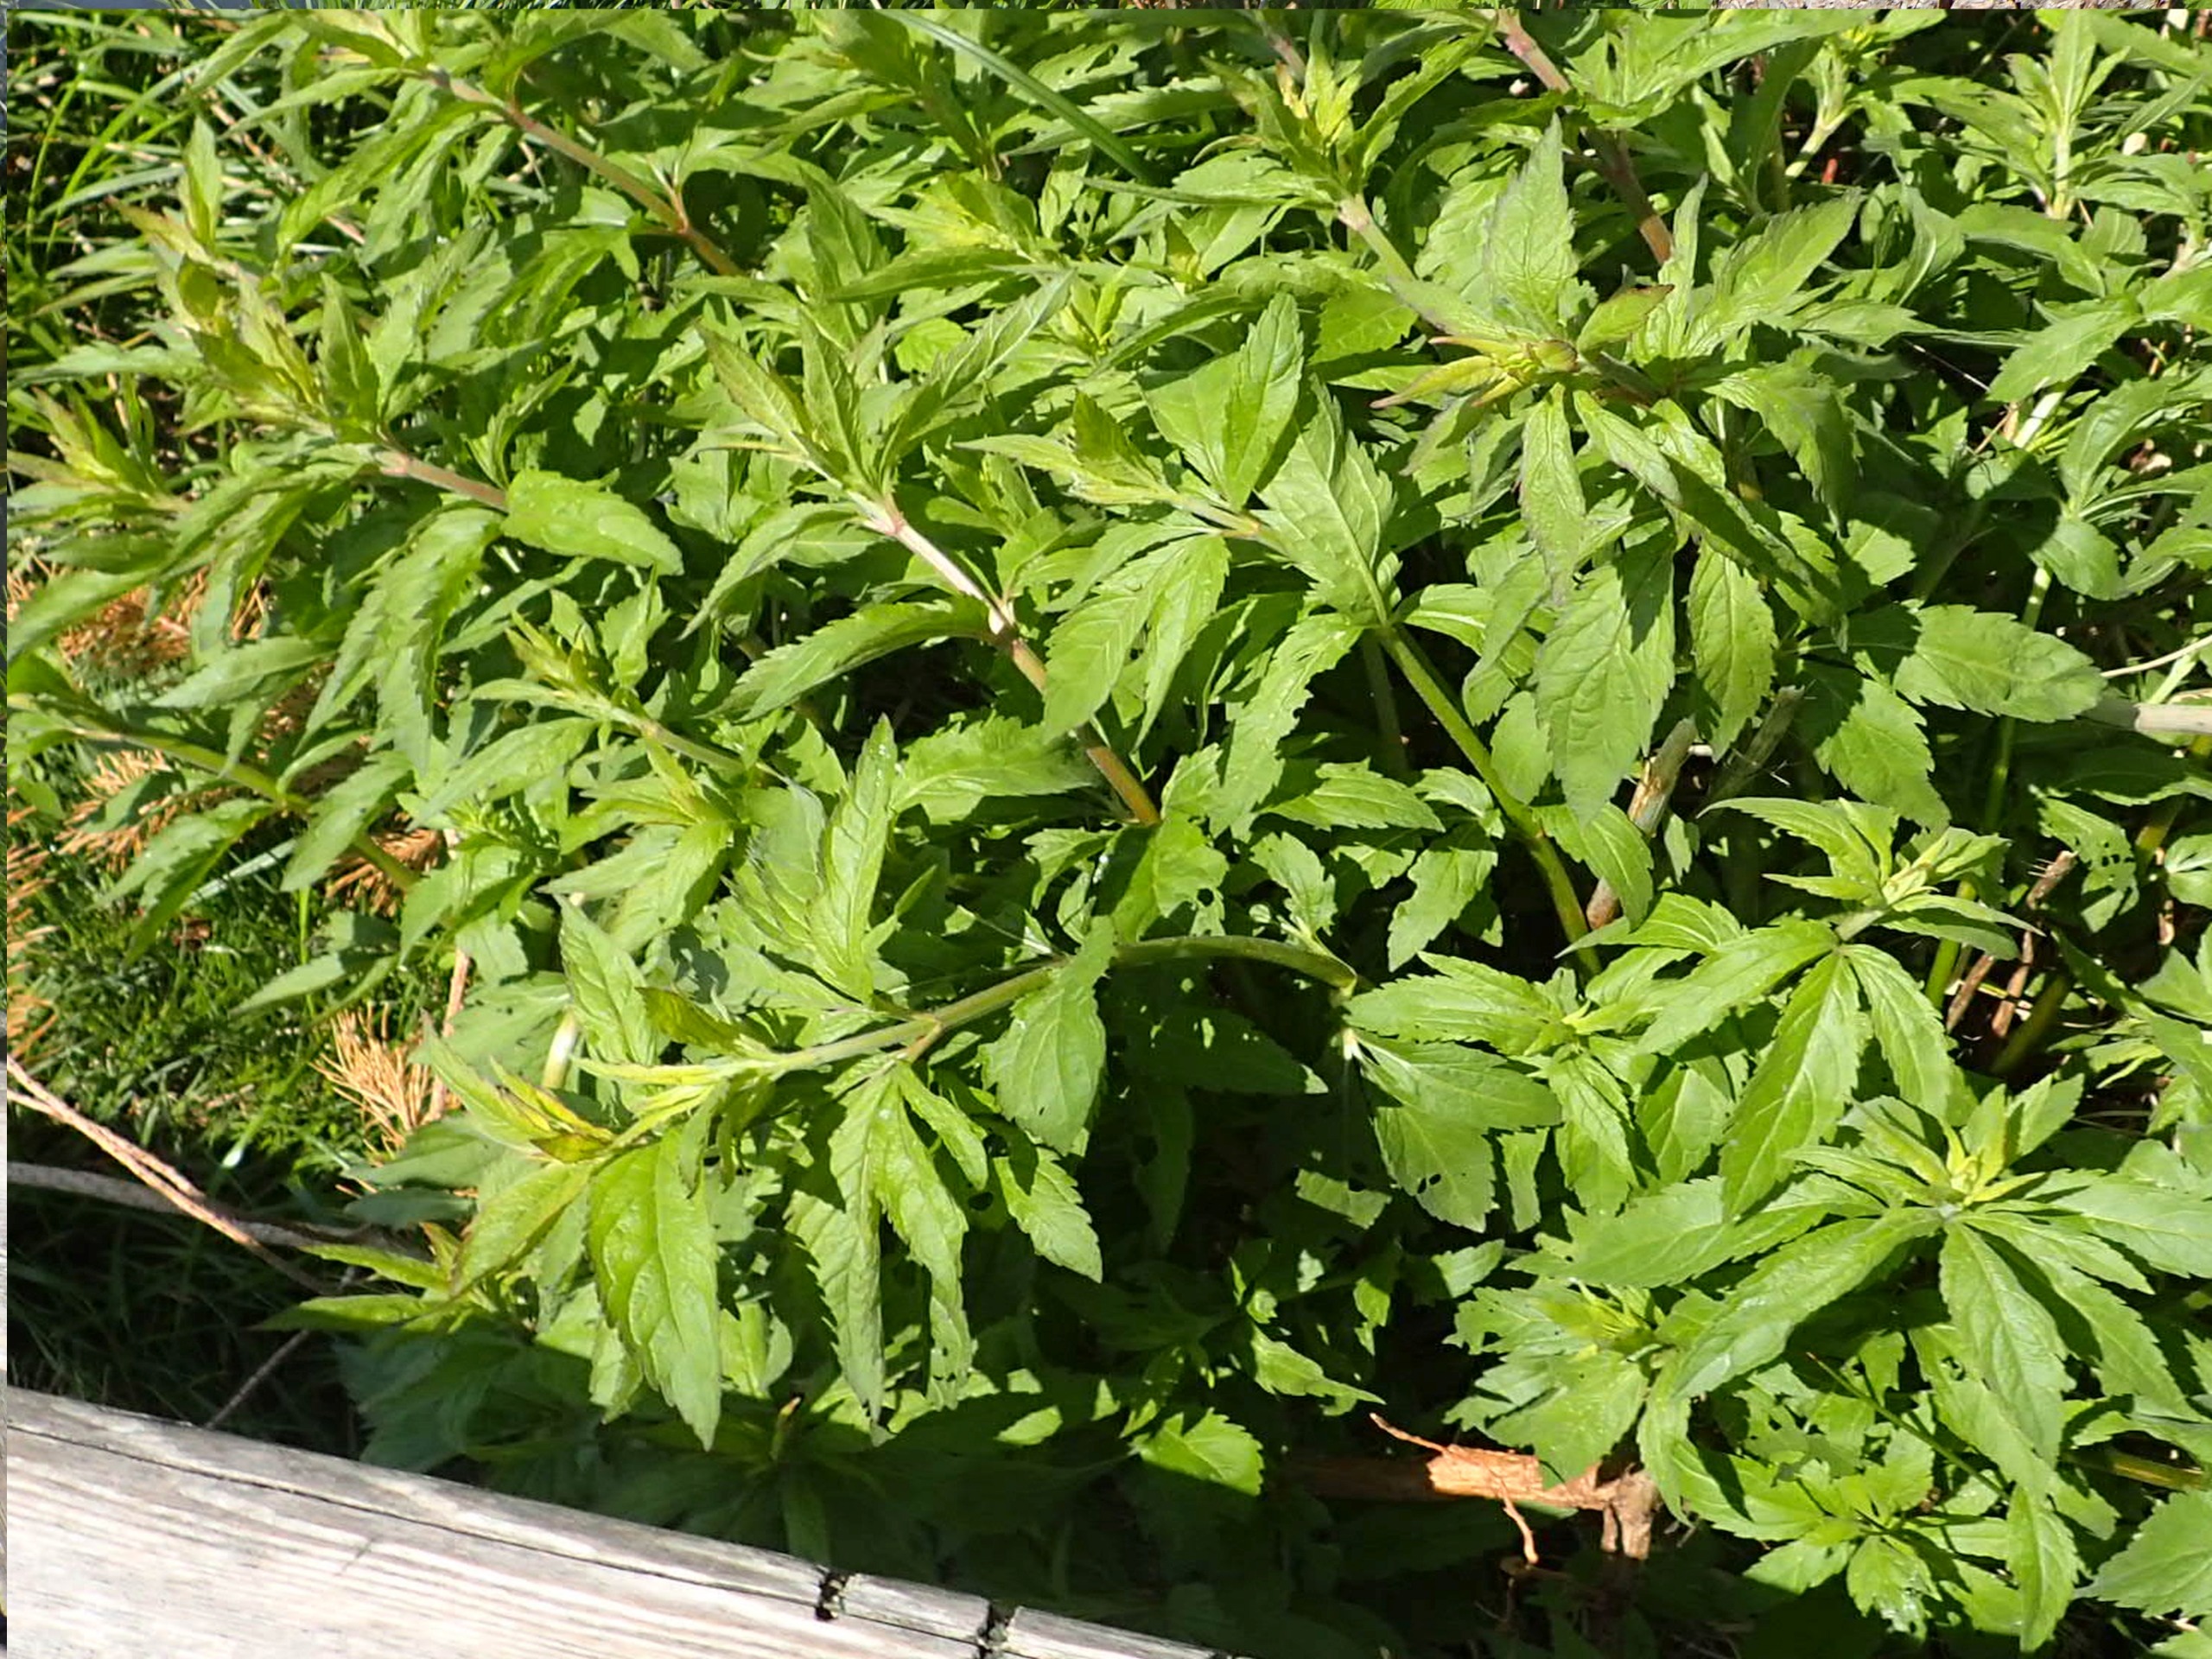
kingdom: Plantae
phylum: Tracheophyta
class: Magnoliopsida
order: Asterales
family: Asteraceae
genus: Eupatorium
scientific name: Eupatorium cannabinum
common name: Hjortetrøst
